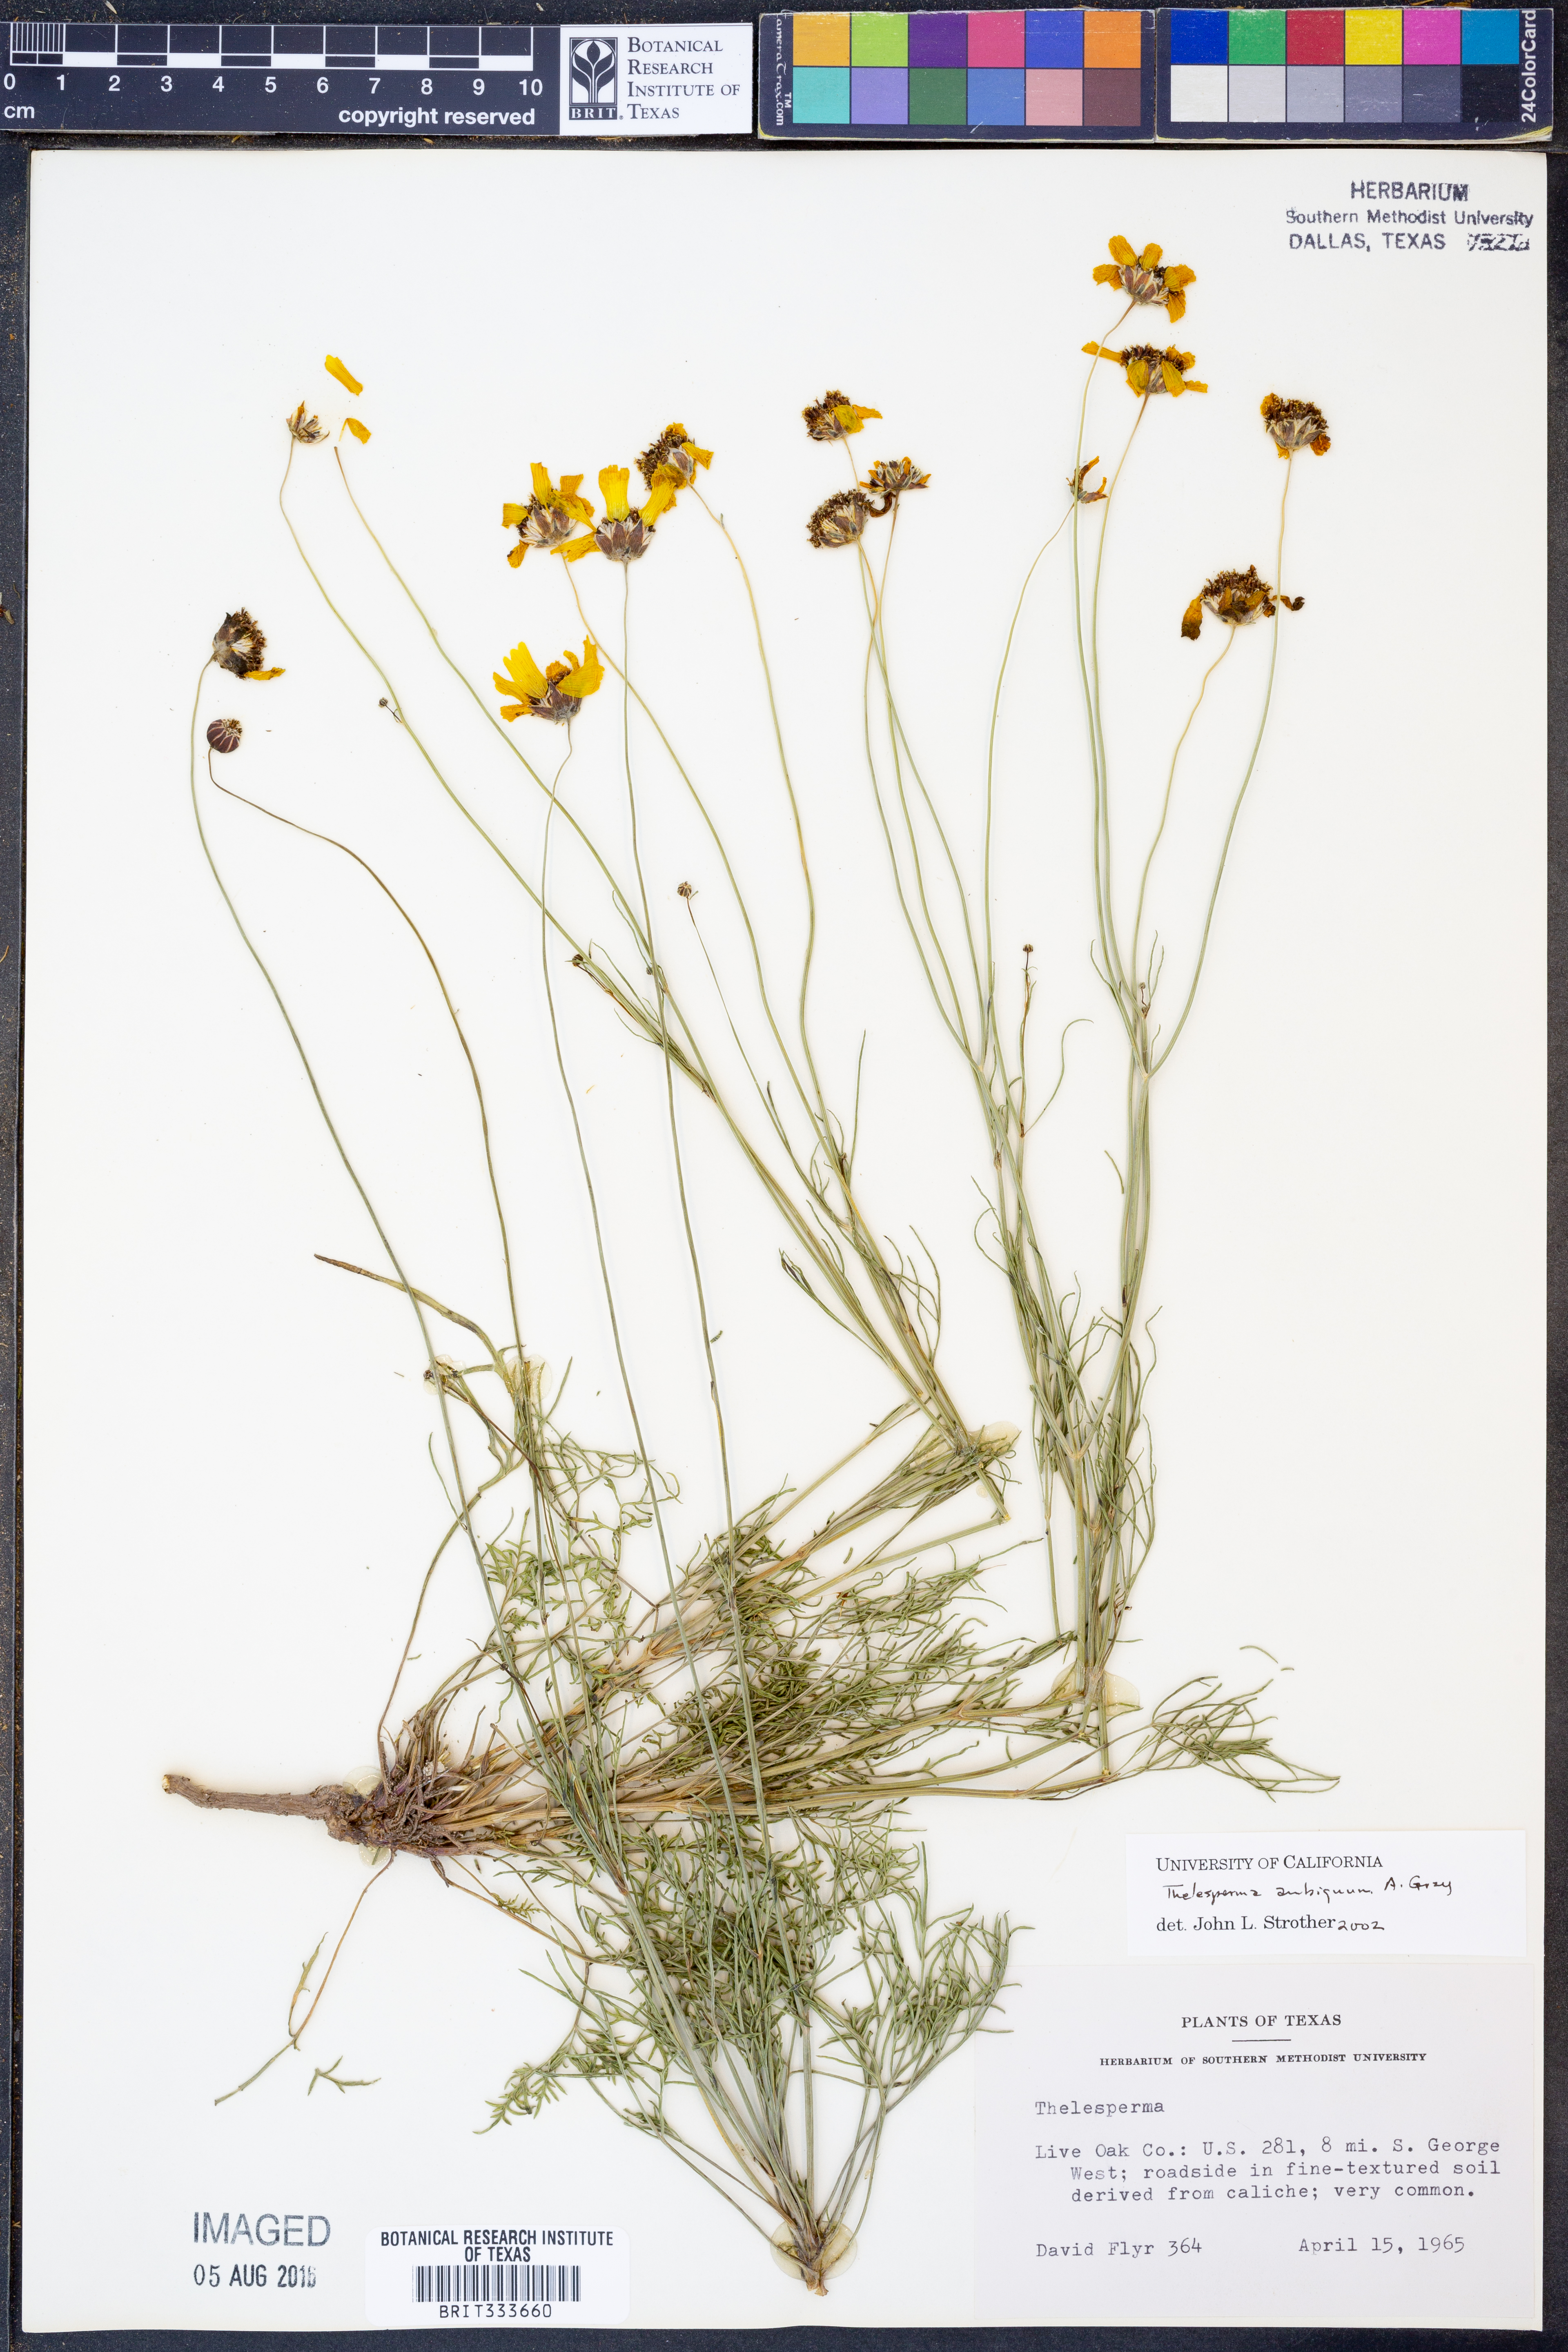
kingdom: Plantae
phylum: Tracheophyta
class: Magnoliopsida
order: Asterales
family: Asteraceae
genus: Thelesperma
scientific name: Thelesperma ambiguum
